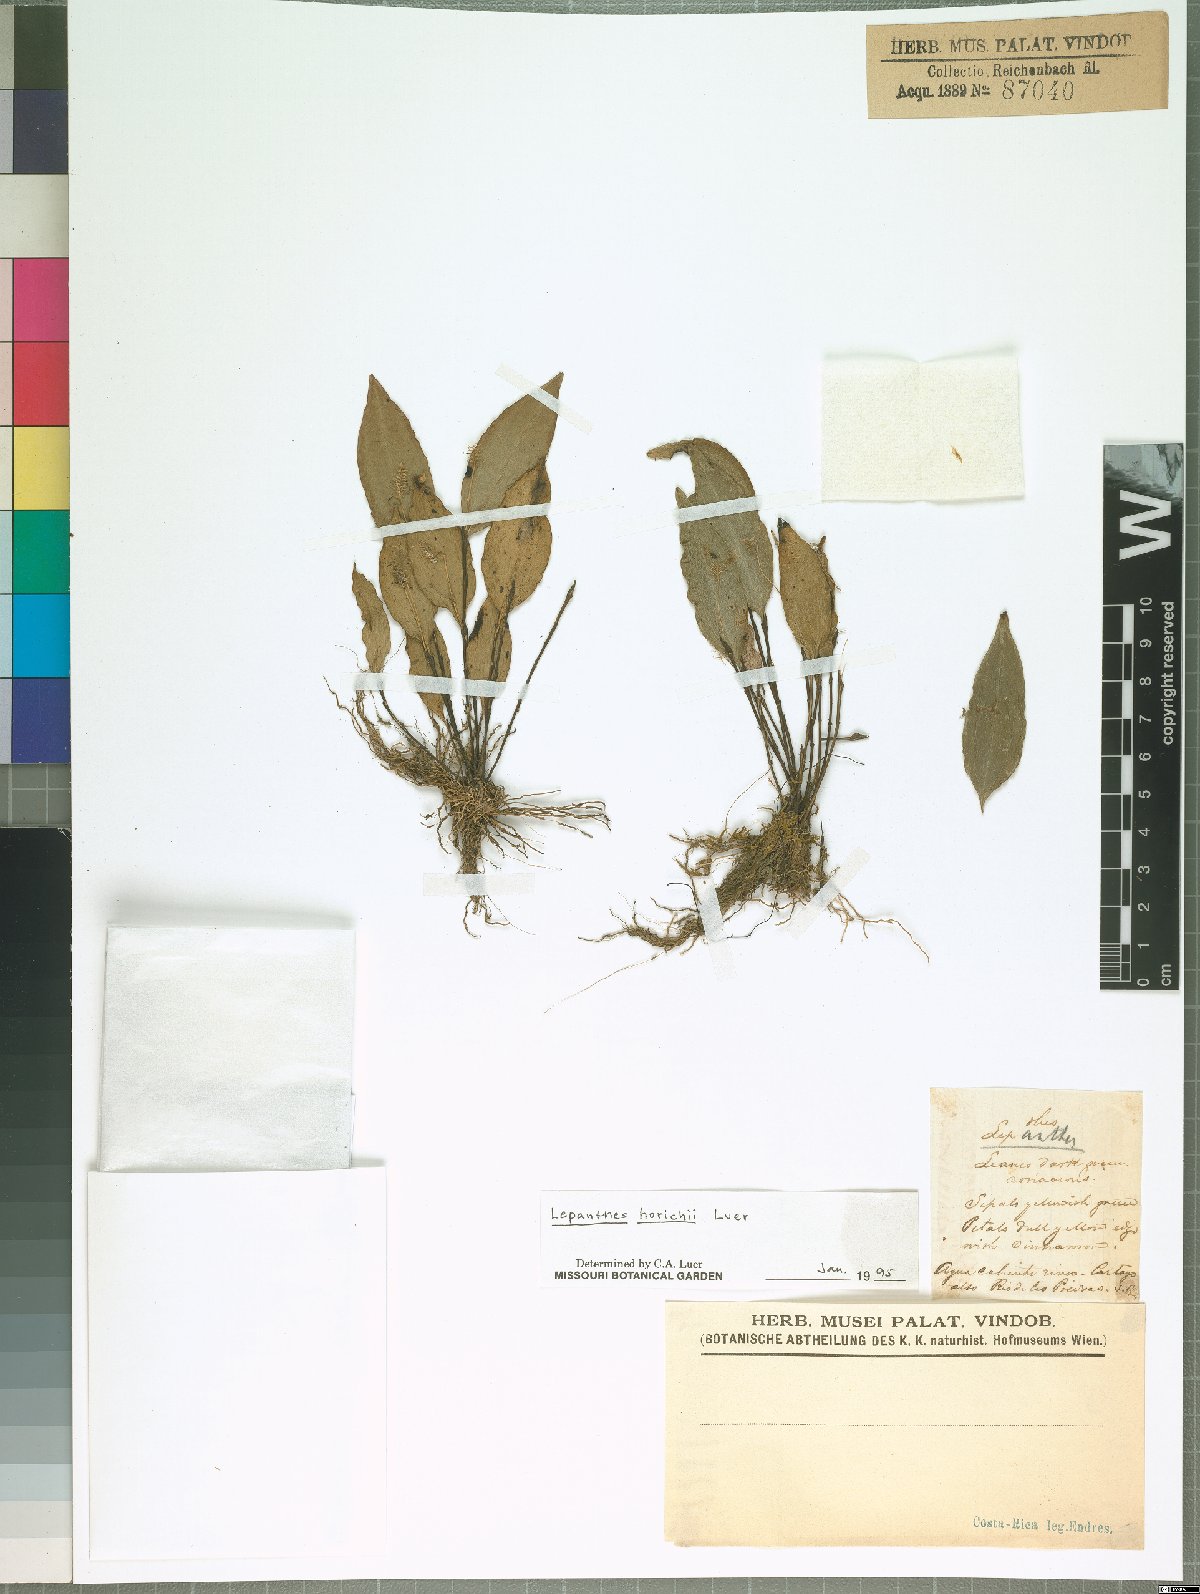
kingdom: Plantae
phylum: Tracheophyta
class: Liliopsida
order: Asparagales
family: Orchidaceae
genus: Lepanthes
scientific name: Lepanthes horichii
